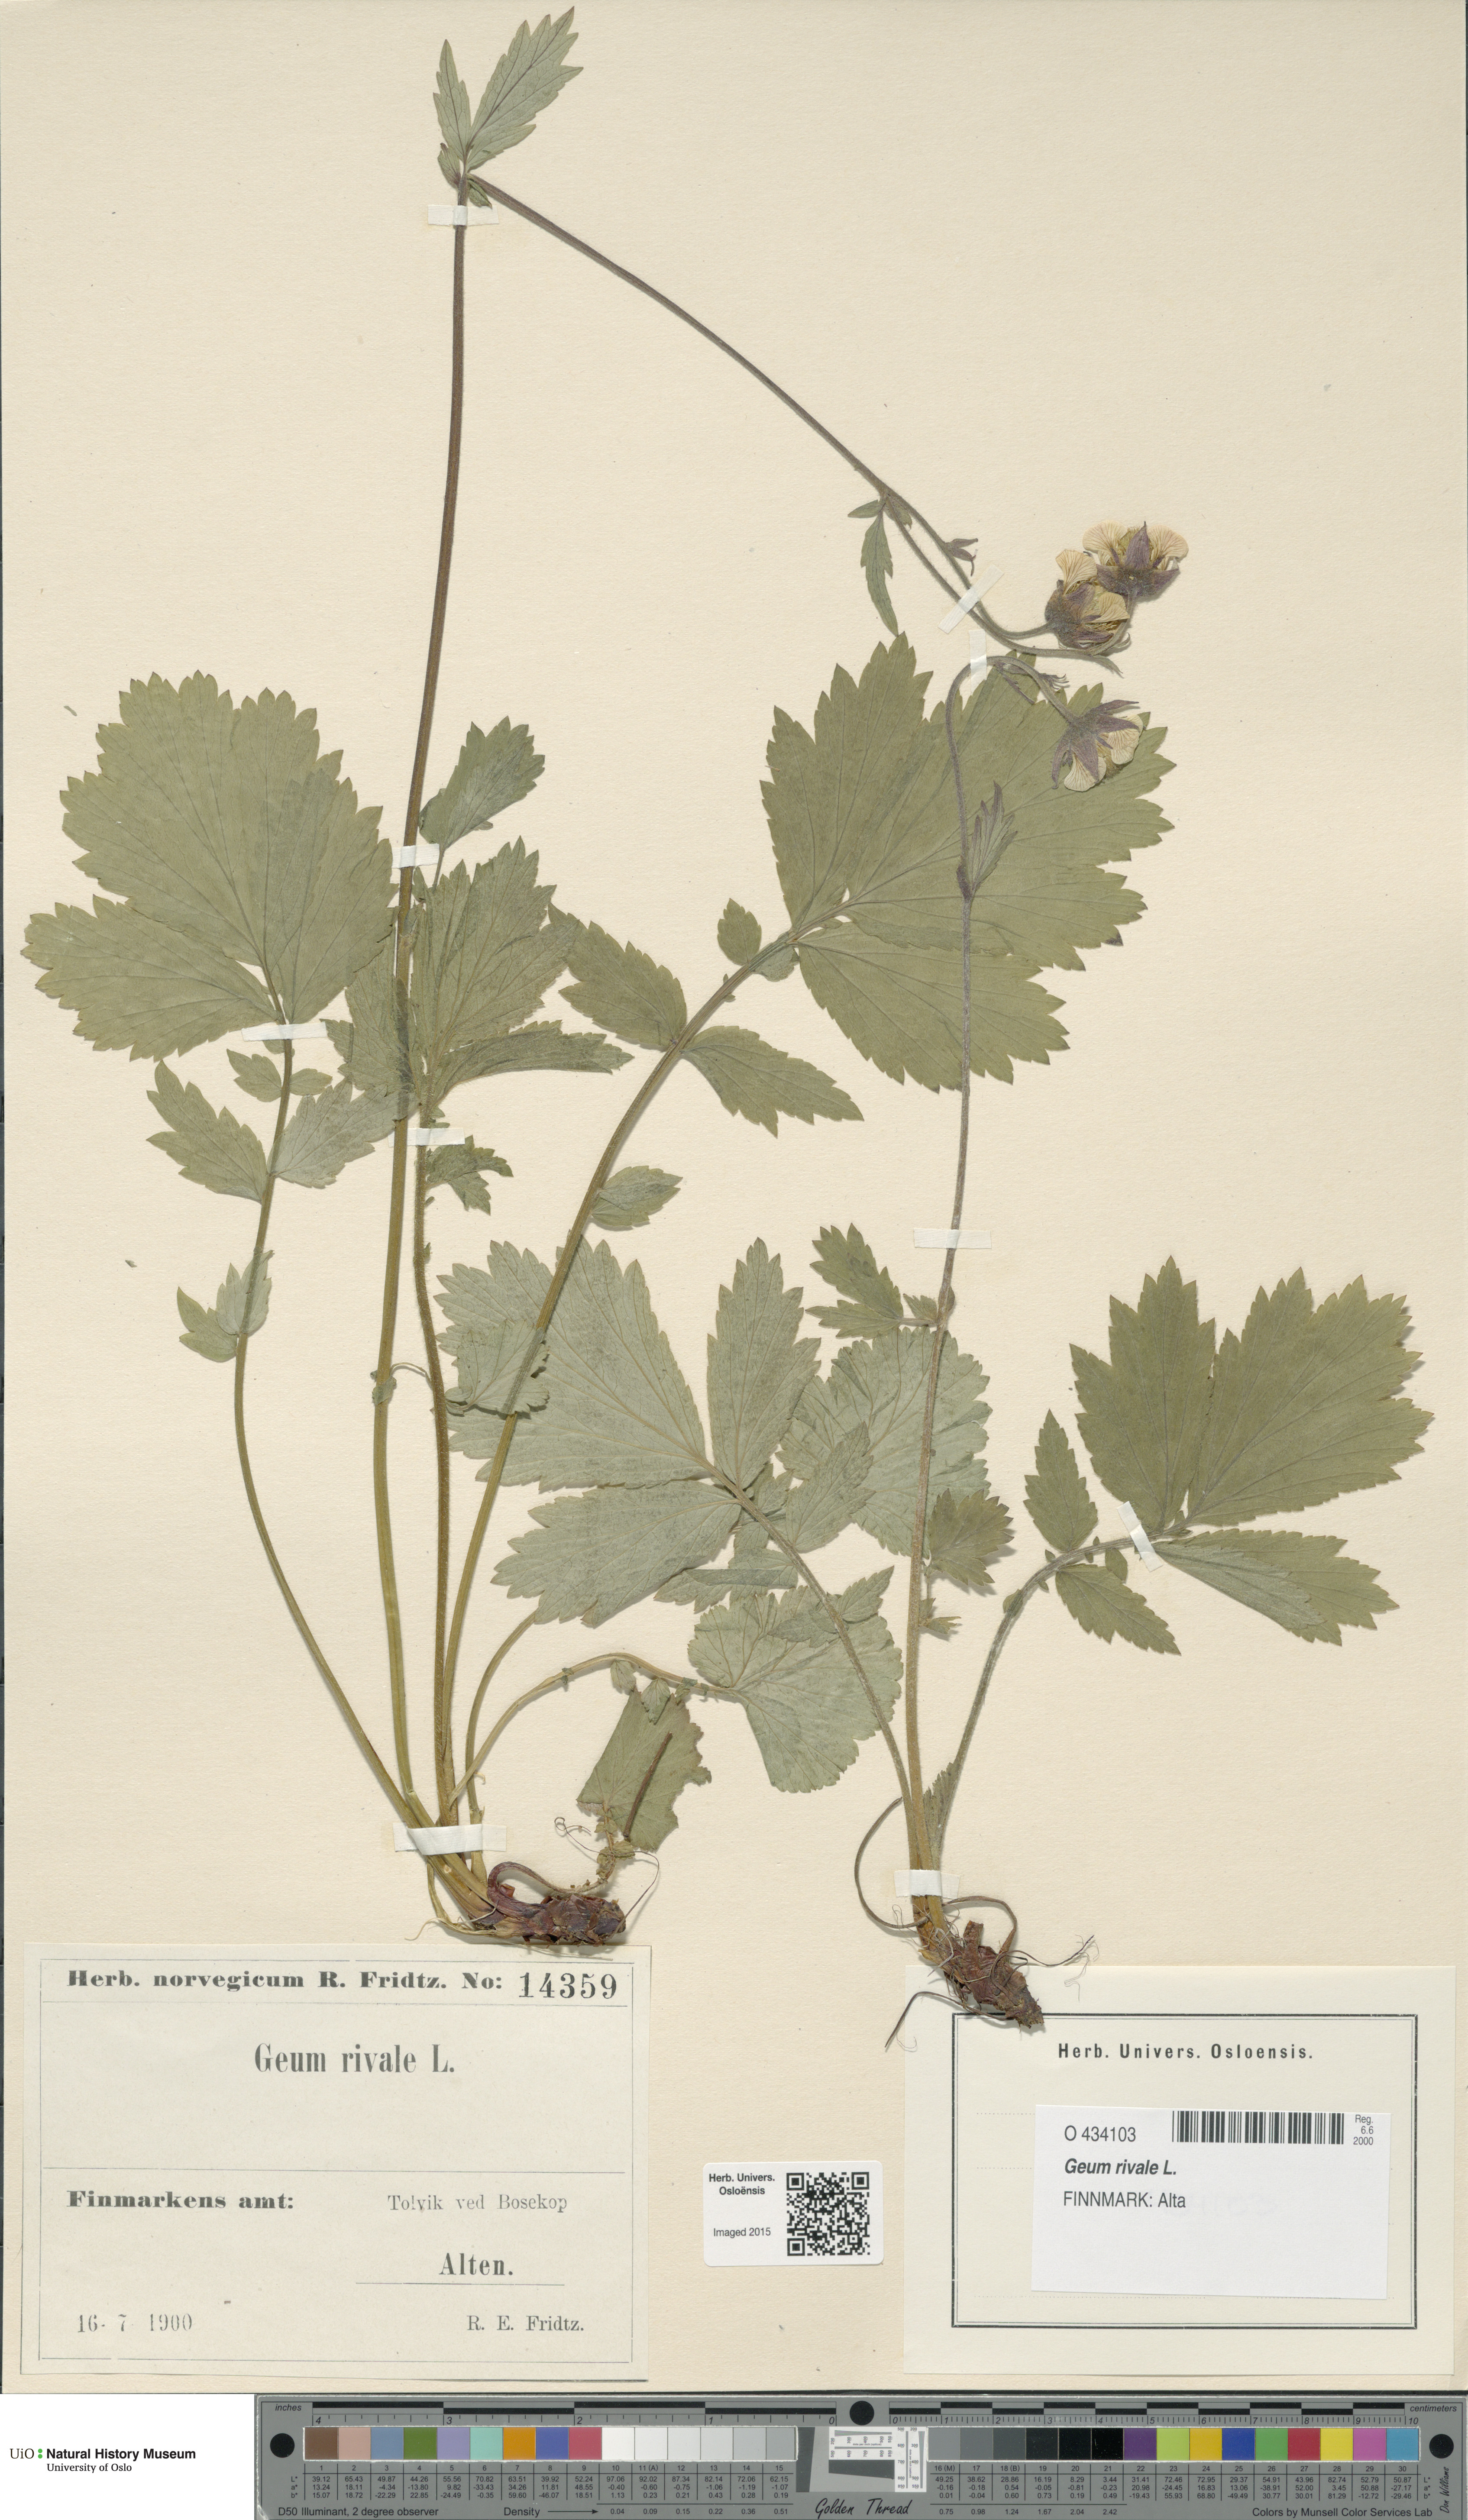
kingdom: Plantae
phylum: Tracheophyta
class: Magnoliopsida
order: Rosales
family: Rosaceae
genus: Geum
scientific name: Geum rivale
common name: Water avens
